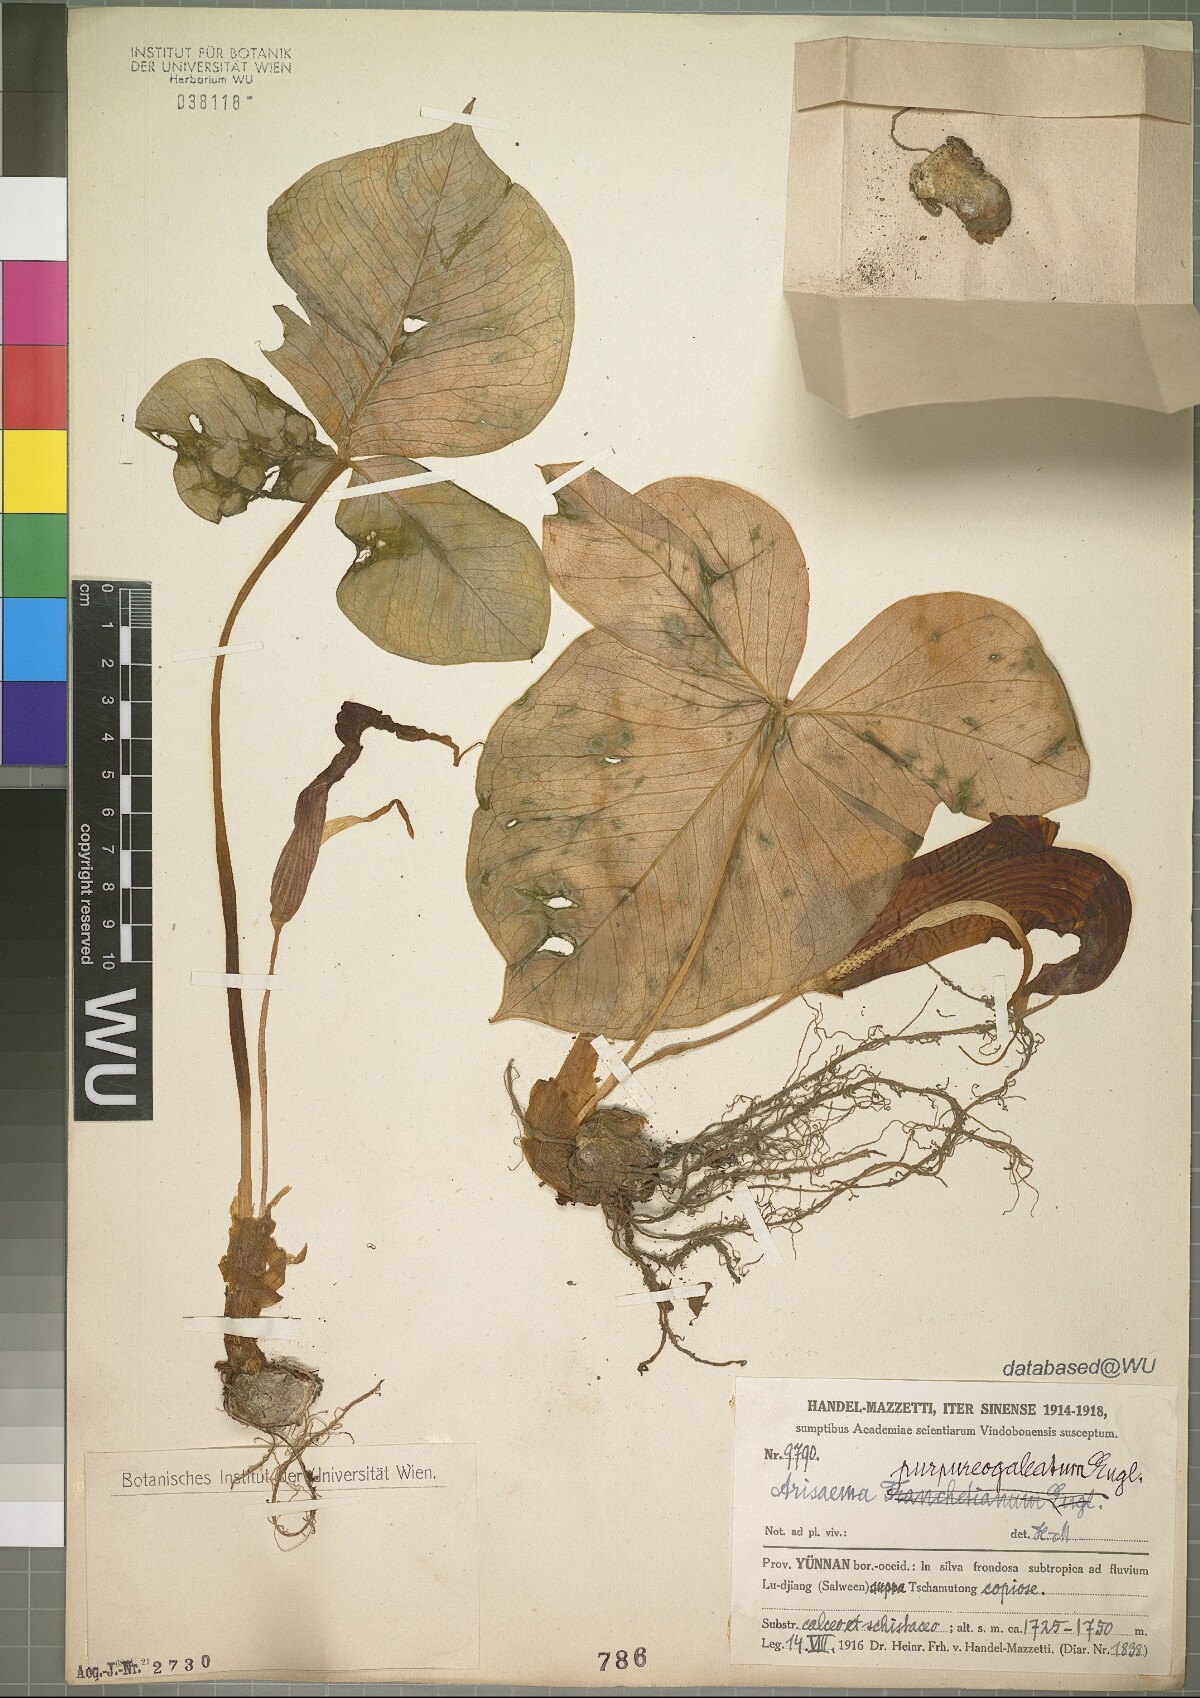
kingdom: Plantae
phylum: Tracheophyta
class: Liliopsida
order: Alismatales
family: Araceae
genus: Arisaema
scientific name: Arisaema purpureogaleatum
